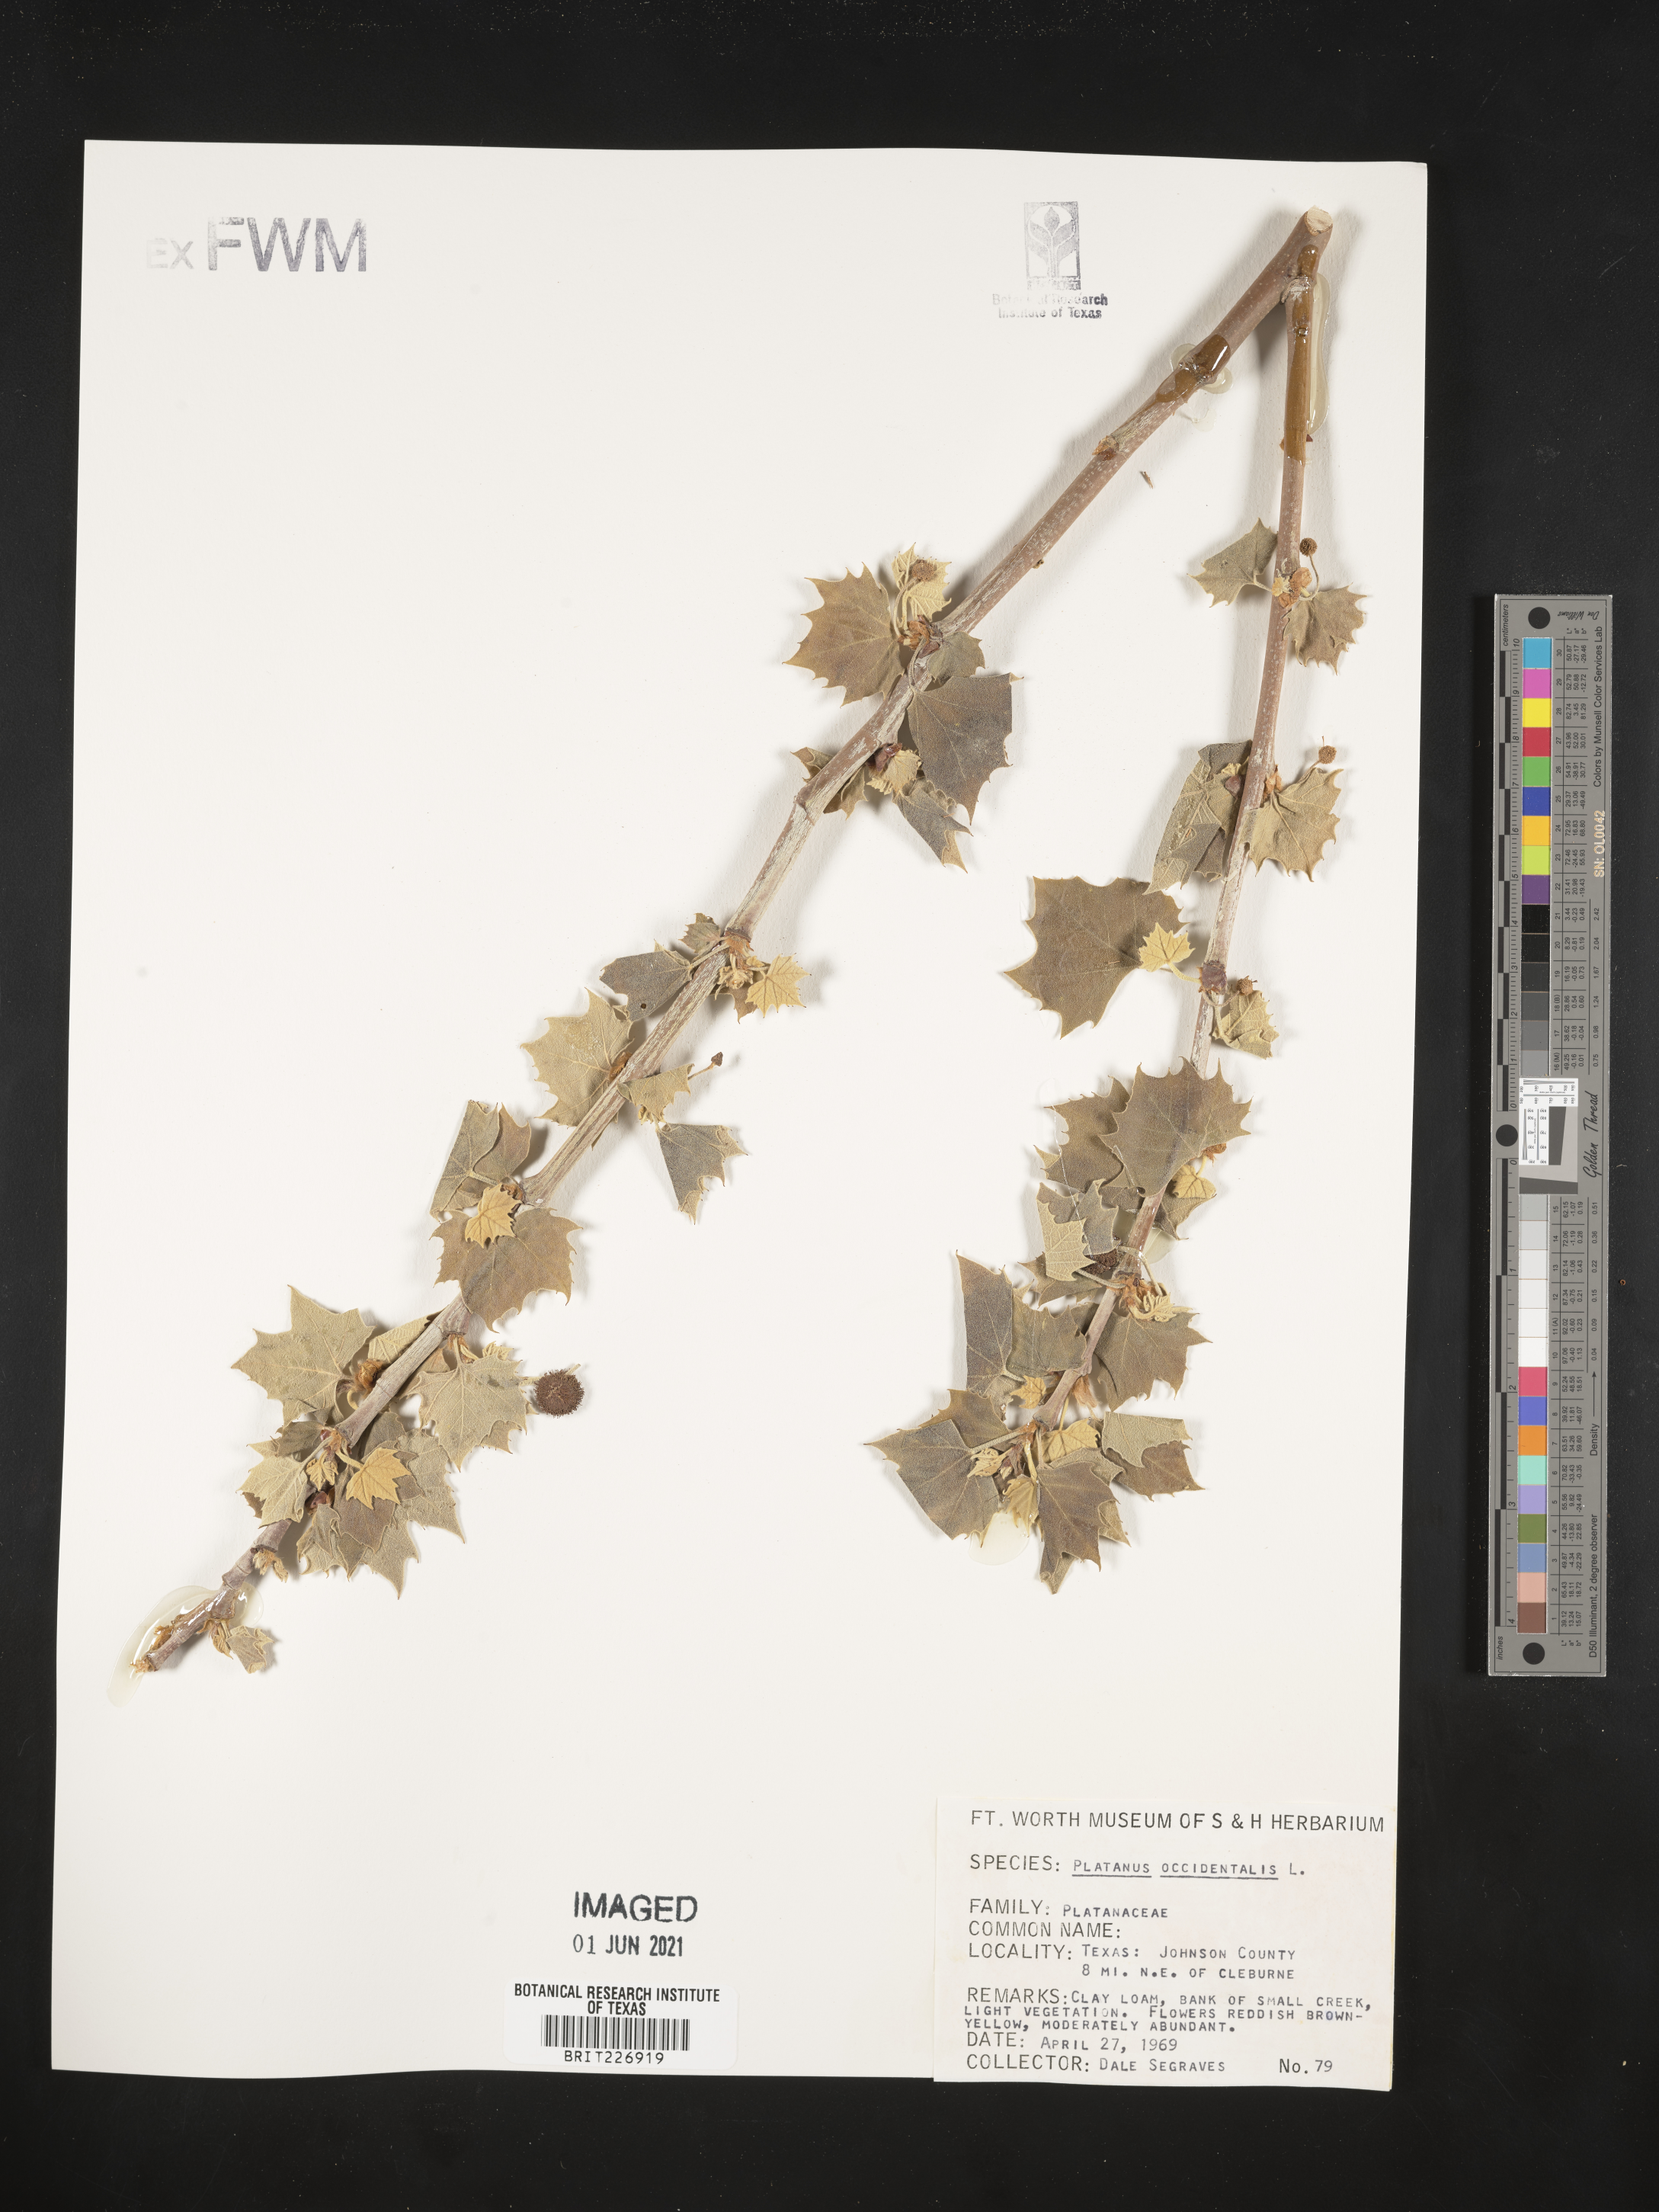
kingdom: Plantae
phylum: Tracheophyta
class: Magnoliopsida
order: Proteales
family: Platanaceae
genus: Platanus
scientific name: Platanus occidentalis
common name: American sycamore
